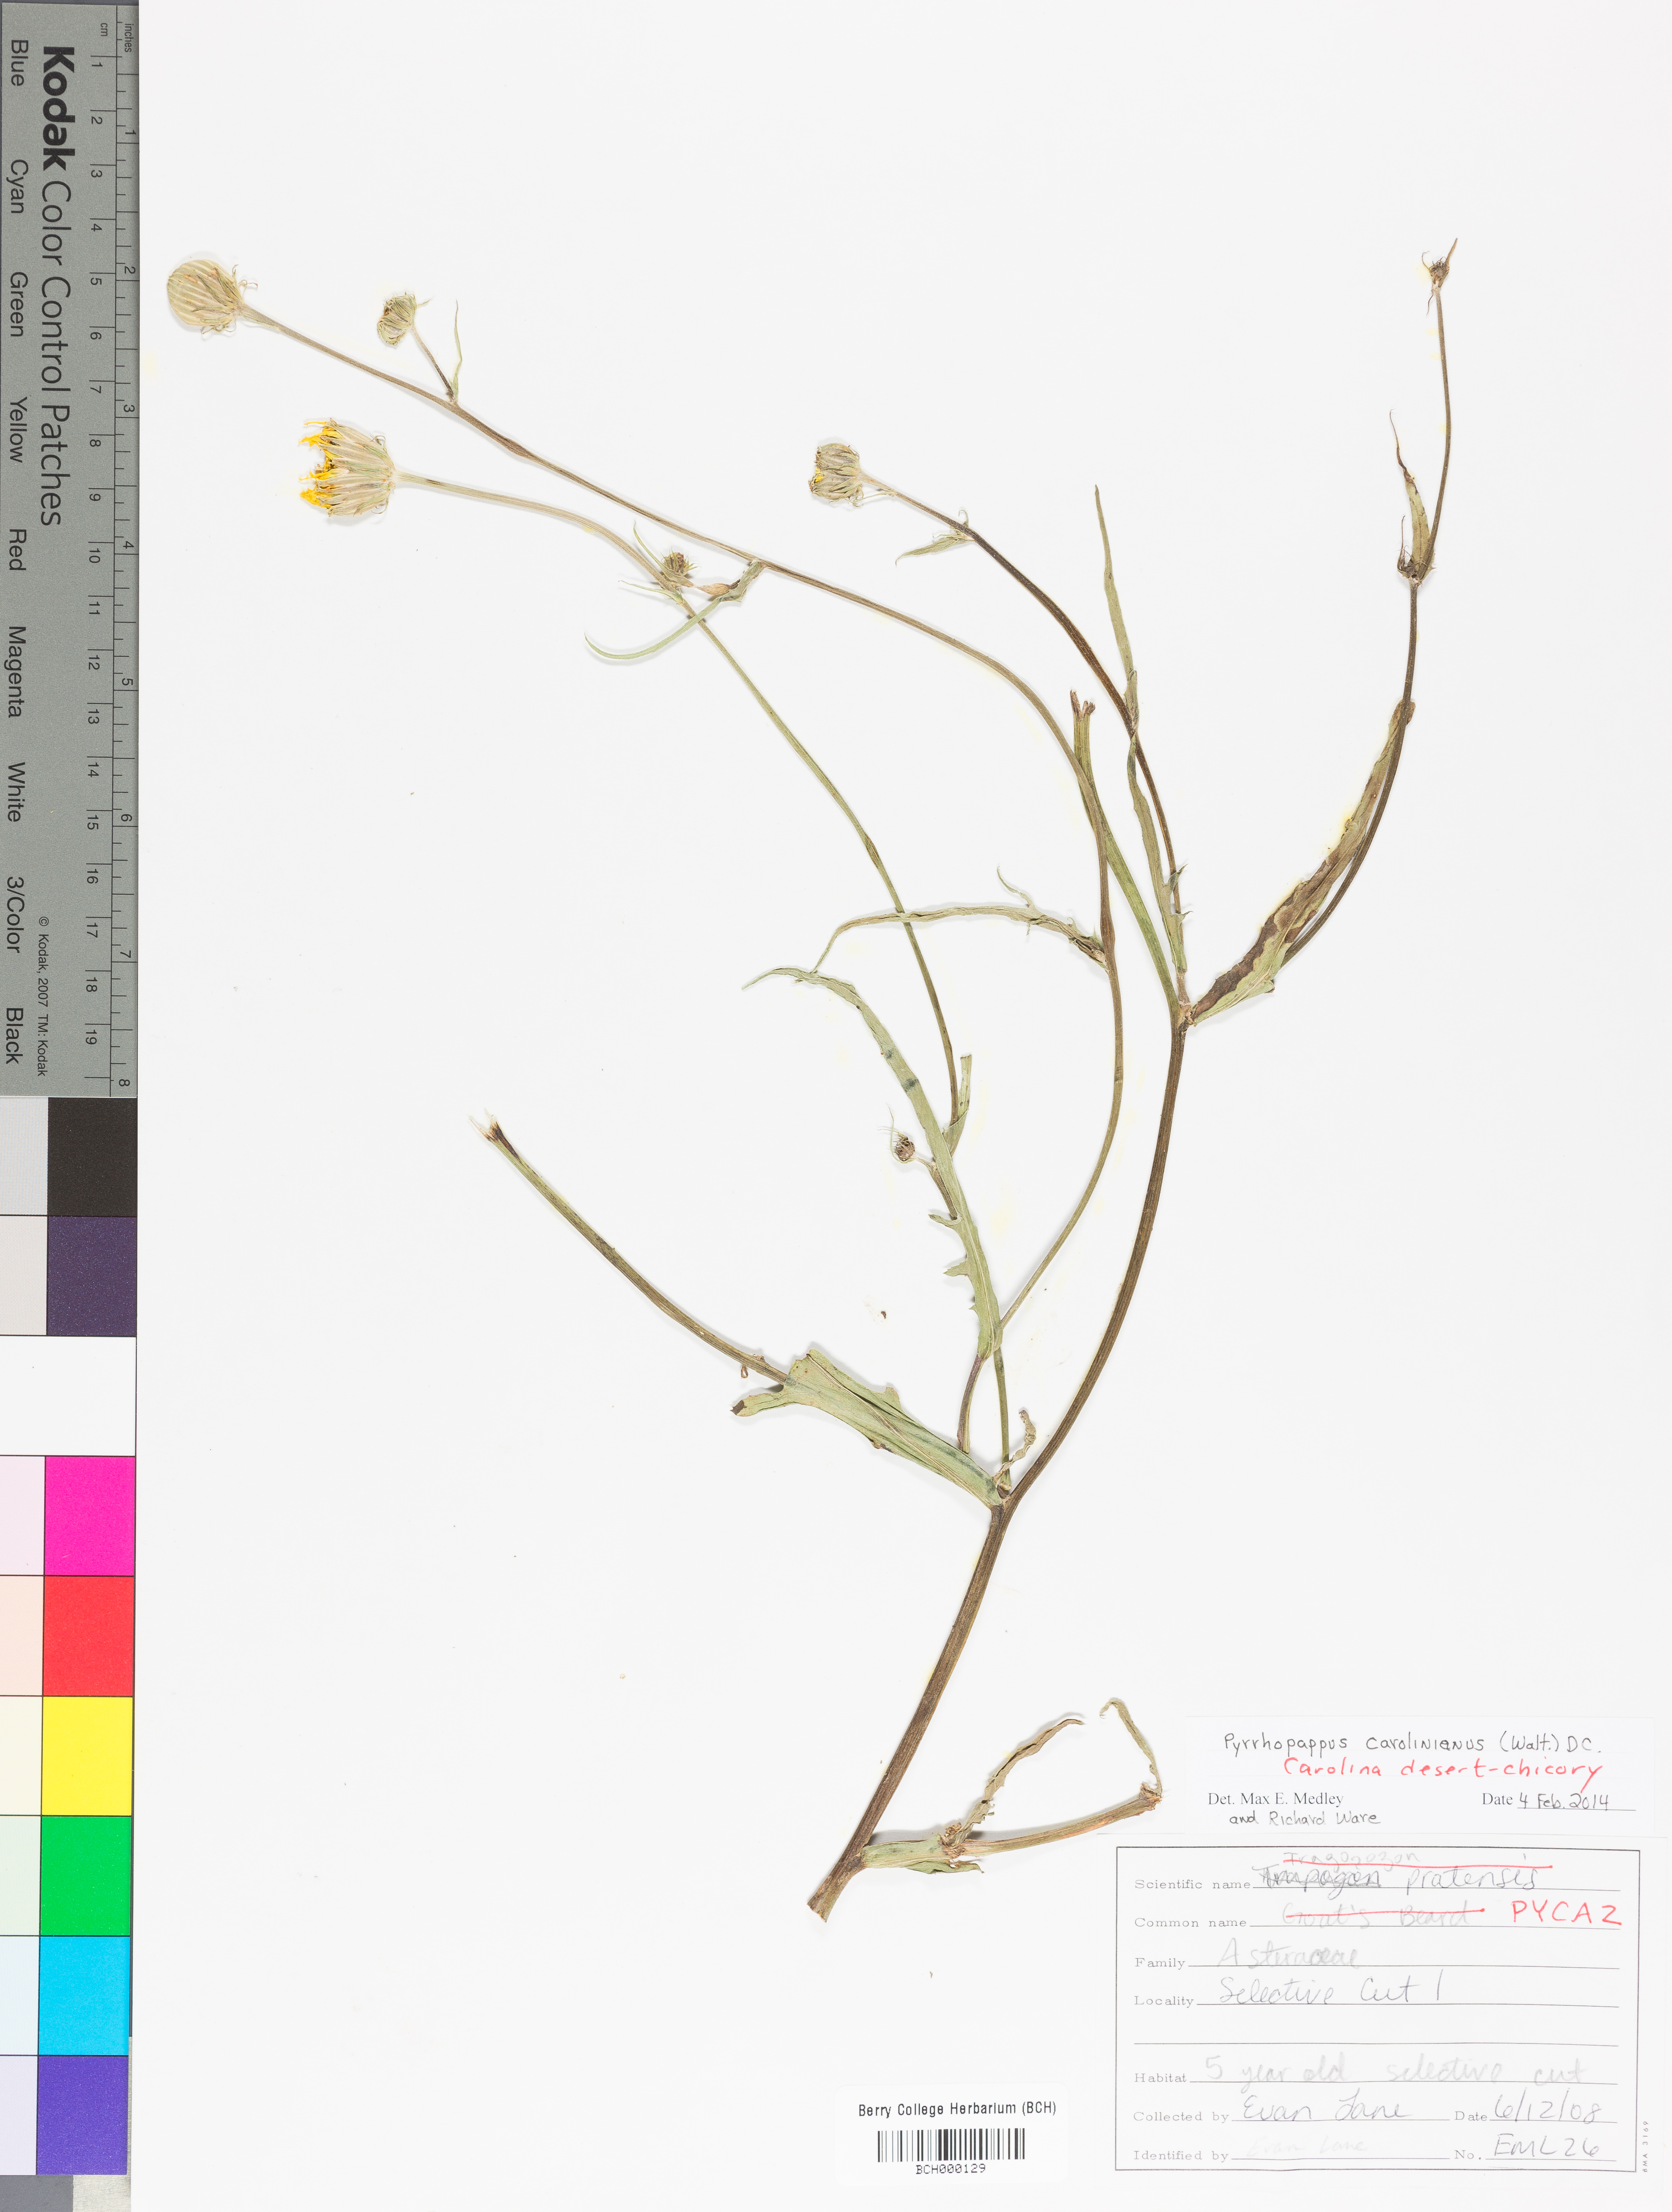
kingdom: Plantae
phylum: Tracheophyta
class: Magnoliopsida
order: Asterales
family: Asteraceae
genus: Pyrrhopappus
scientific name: Pyrrhopappus carolinianus
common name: Carolina desert-chicory
